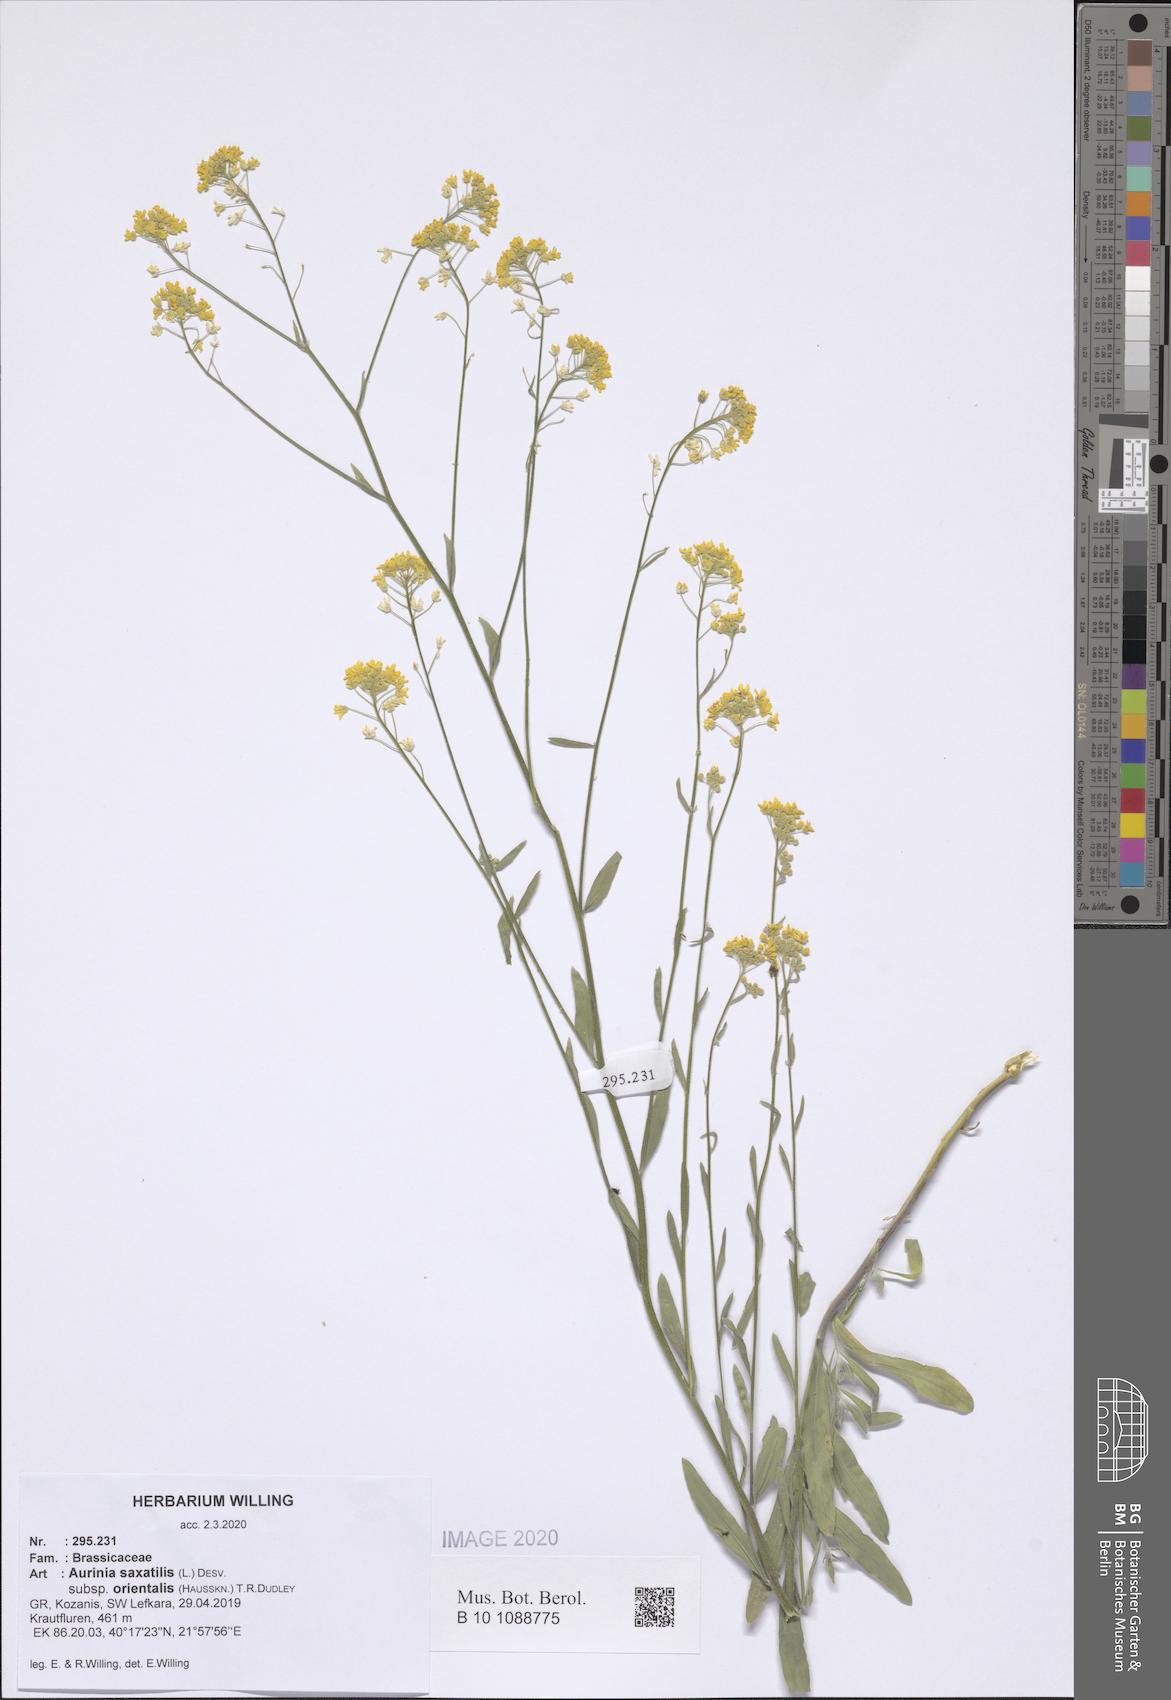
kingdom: Plantae
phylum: Tracheophyta
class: Magnoliopsida
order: Brassicales
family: Brassicaceae
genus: Aurinia
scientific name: Aurinia saxatilis
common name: Golden-tuft alyssum
